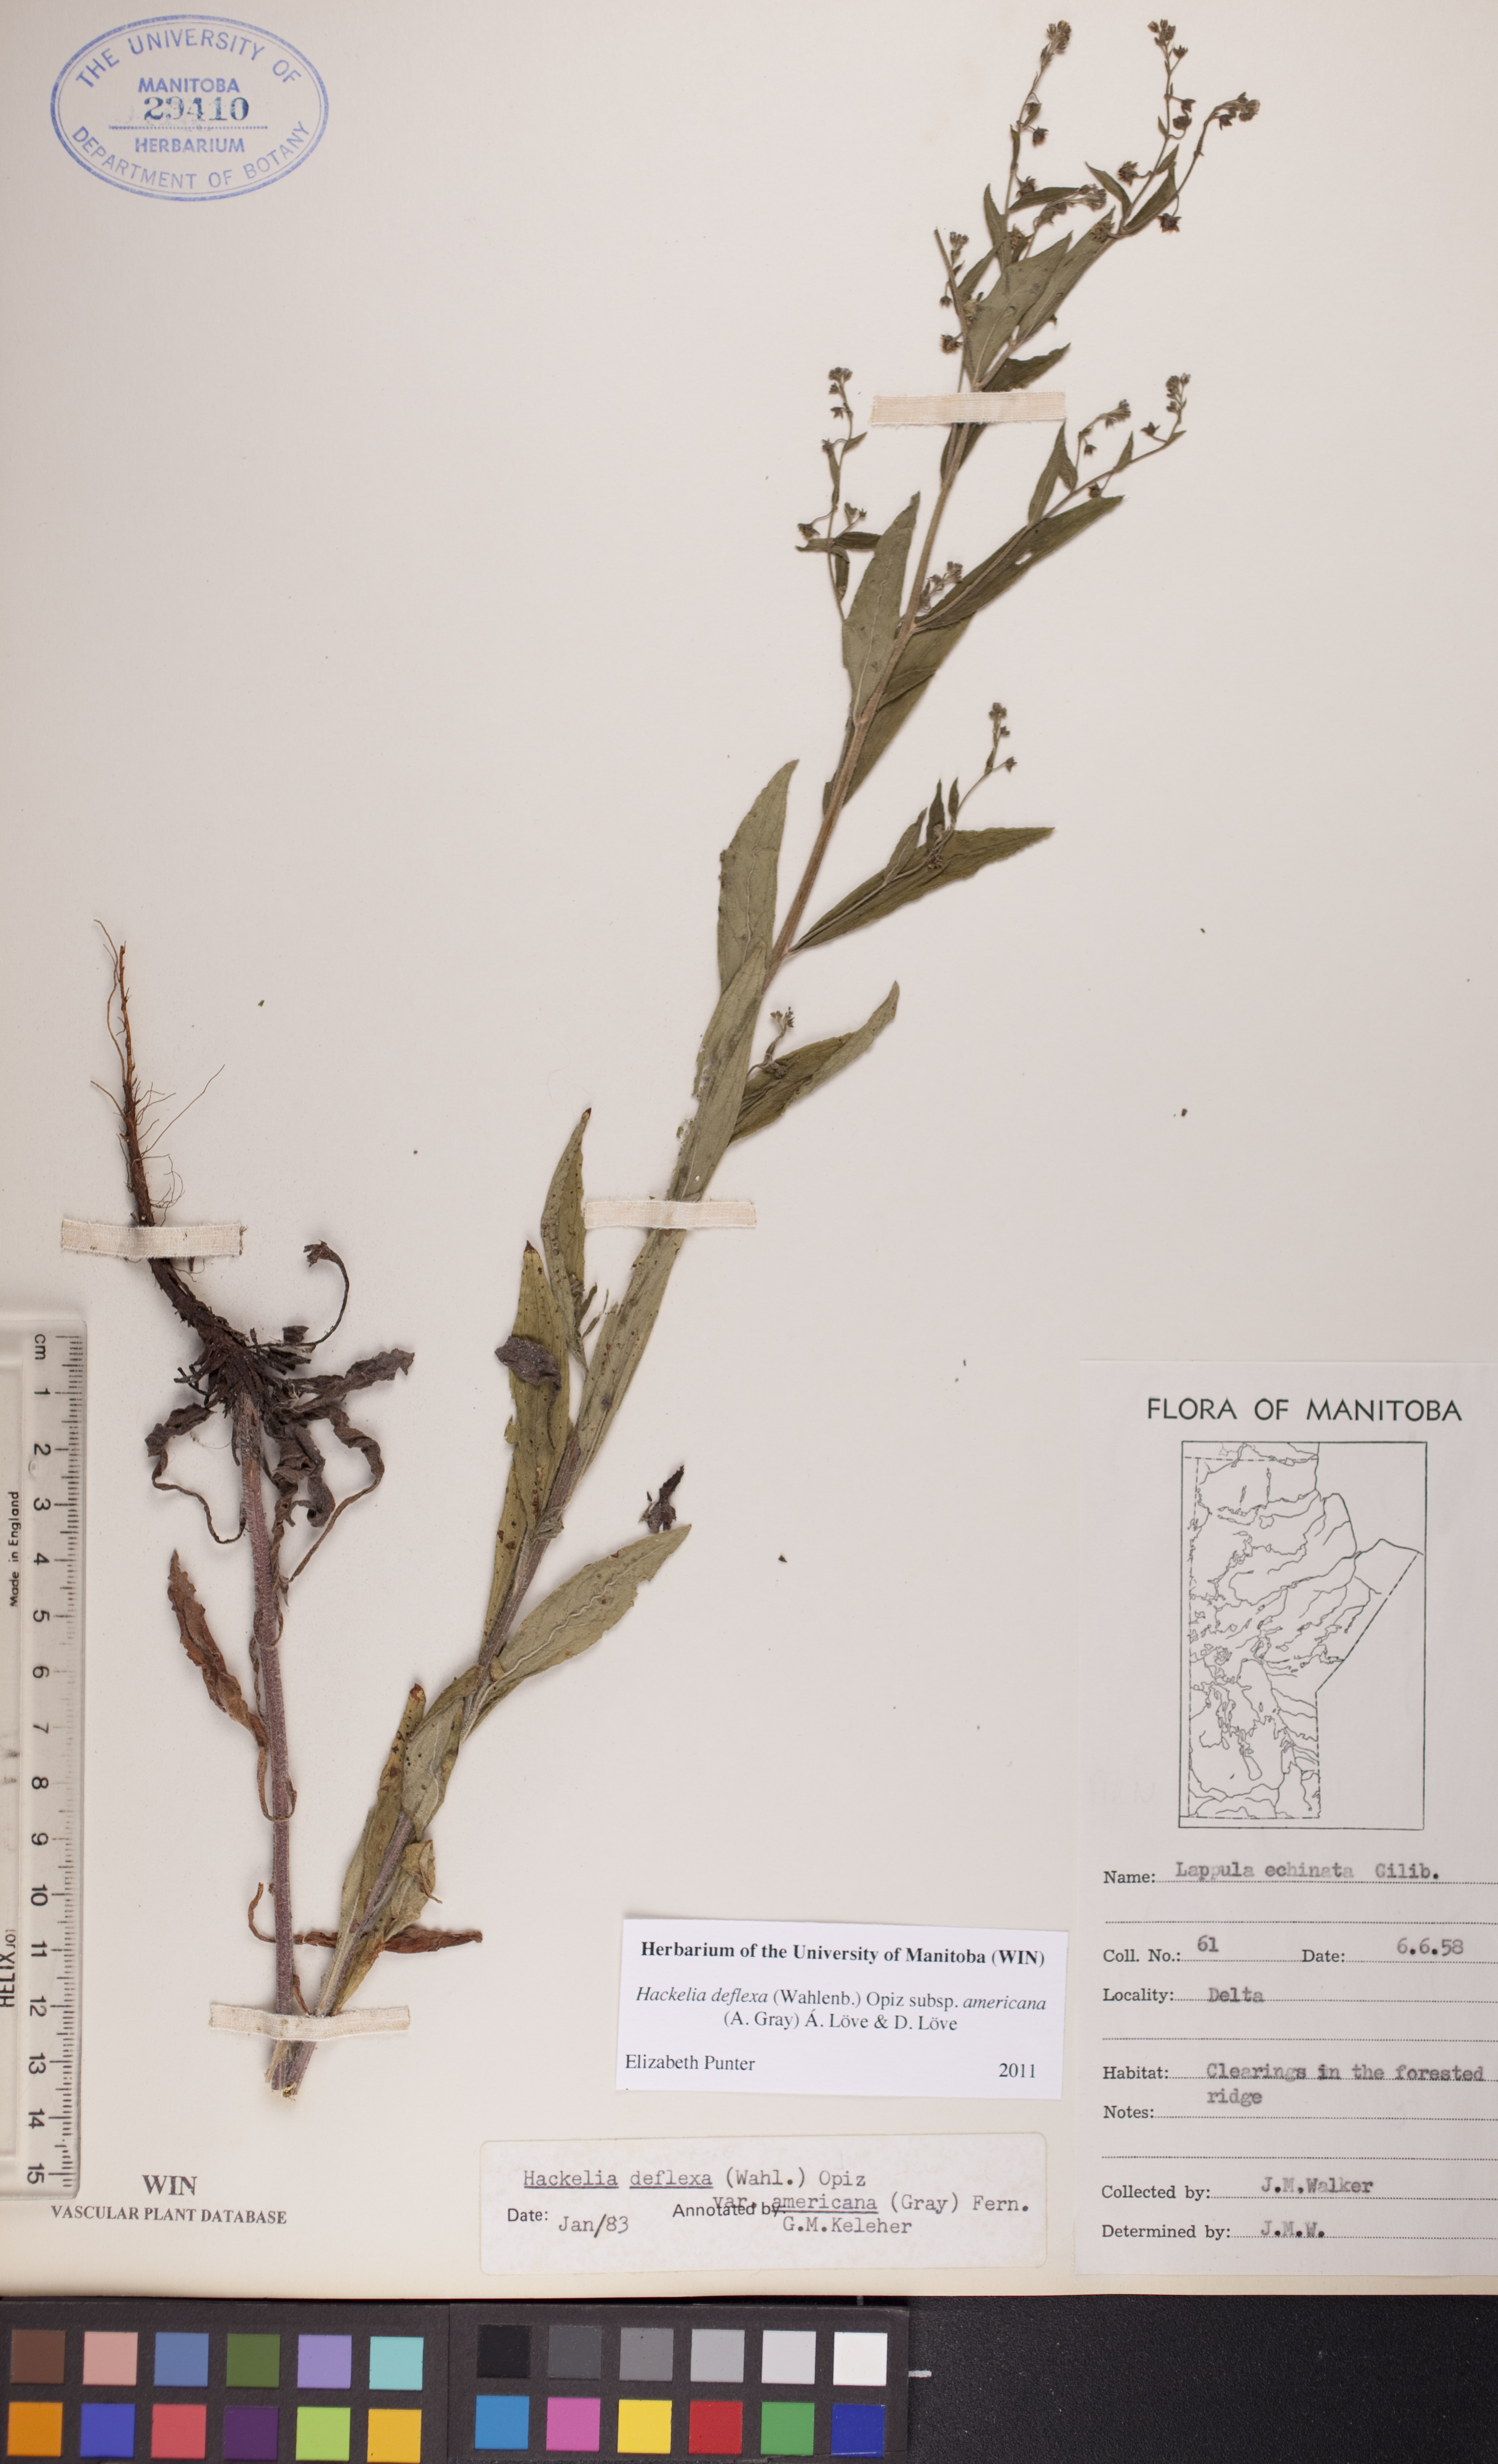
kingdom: Plantae
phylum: Tracheophyta
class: Magnoliopsida
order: Boraginales
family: Boraginaceae
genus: Hackelia
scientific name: Hackelia deflexa
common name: Nodding stickseed
